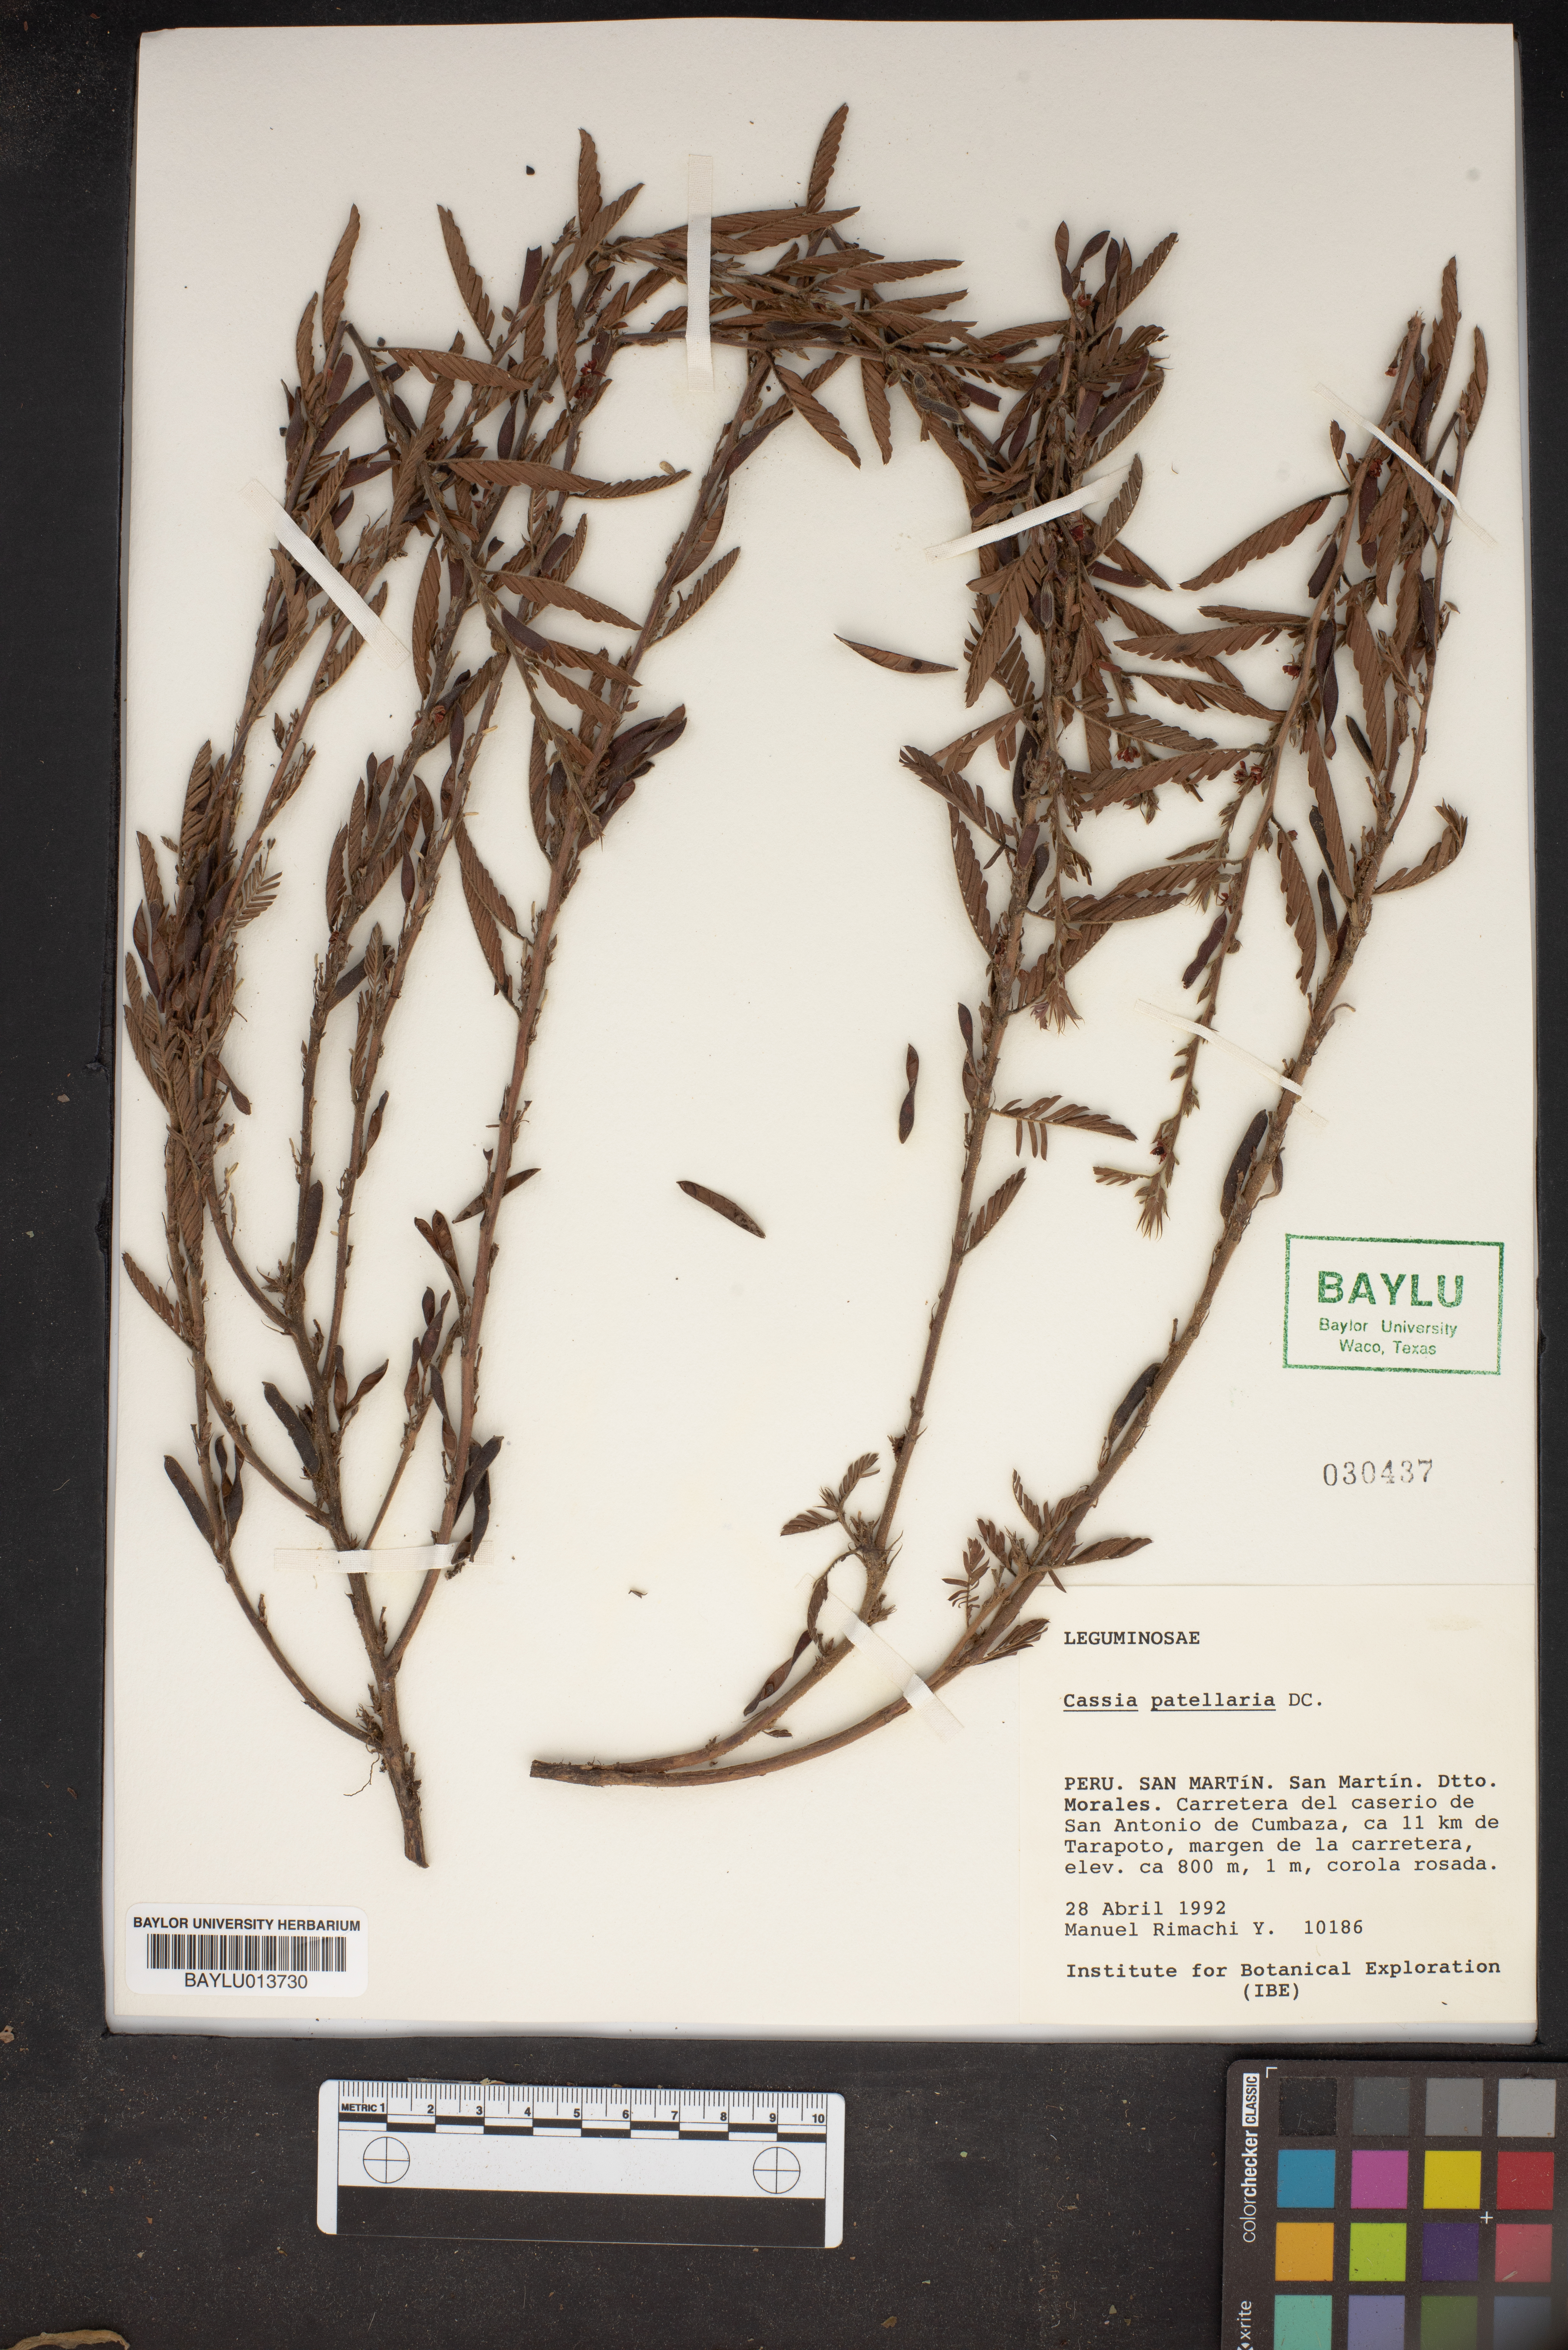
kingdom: Plantae
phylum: Tracheophyta
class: Magnoliopsida
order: Fabales
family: Fabaceae
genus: Chamaecrista
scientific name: Chamaecrista nictitans
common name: Sensitive cassia
